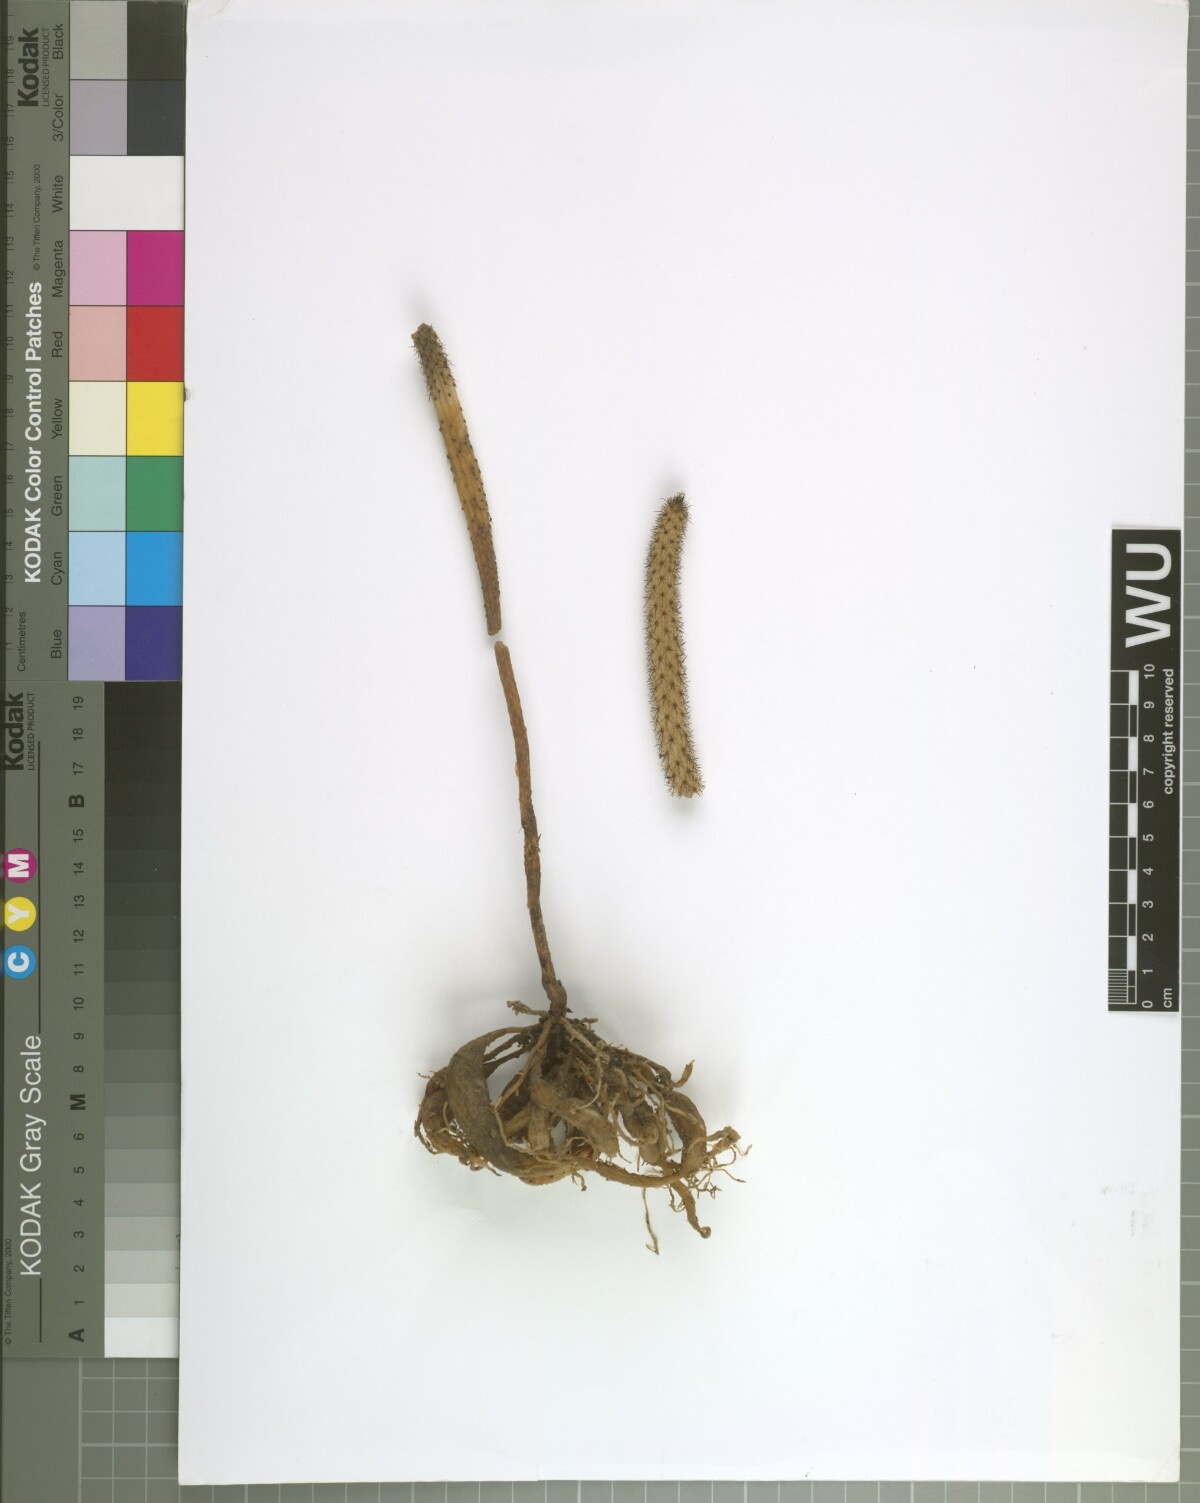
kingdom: Plantae
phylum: Tracheophyta
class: Magnoliopsida
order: Caryophyllales
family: Cactaceae
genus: Echinocereus
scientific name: Echinocereus waldeisii
